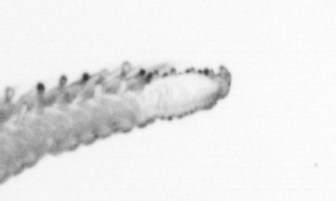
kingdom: Animalia
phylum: Annelida
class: Polychaeta
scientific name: Polychaeta
